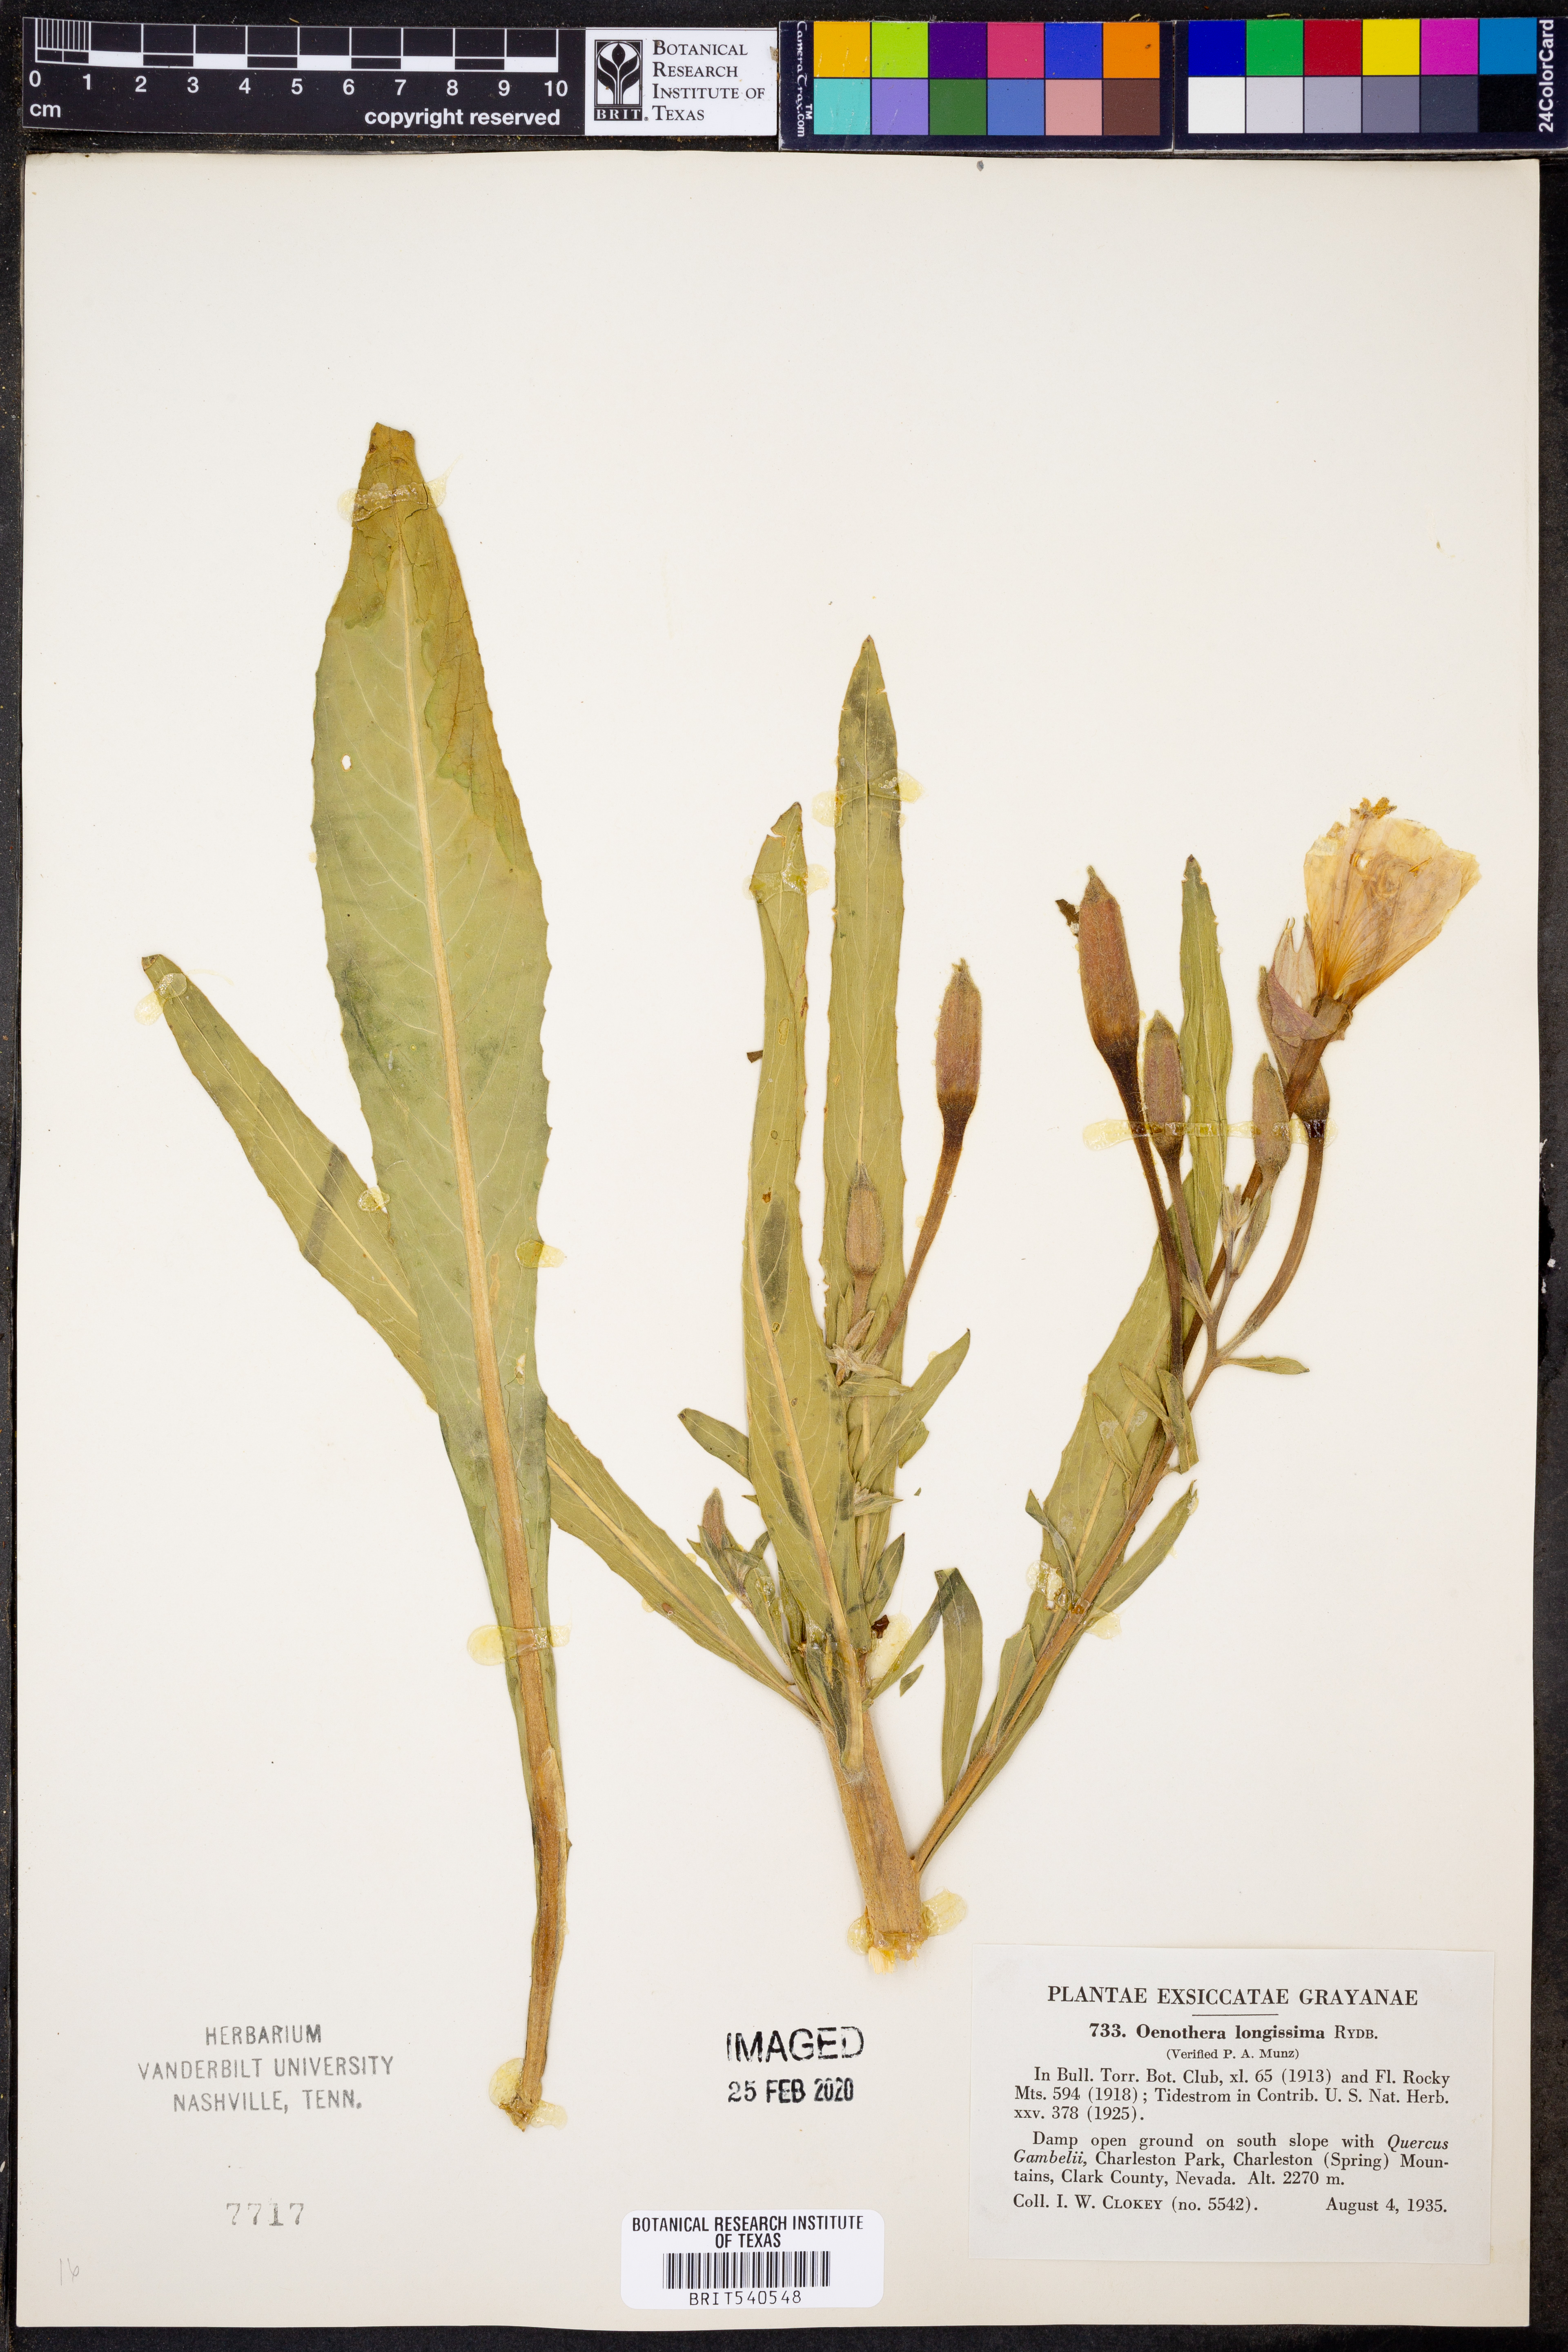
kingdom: Plantae
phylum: Tracheophyta
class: Magnoliopsida
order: Myrtales
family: Onagraceae
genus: Oenothera
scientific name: Oenothera longissima
